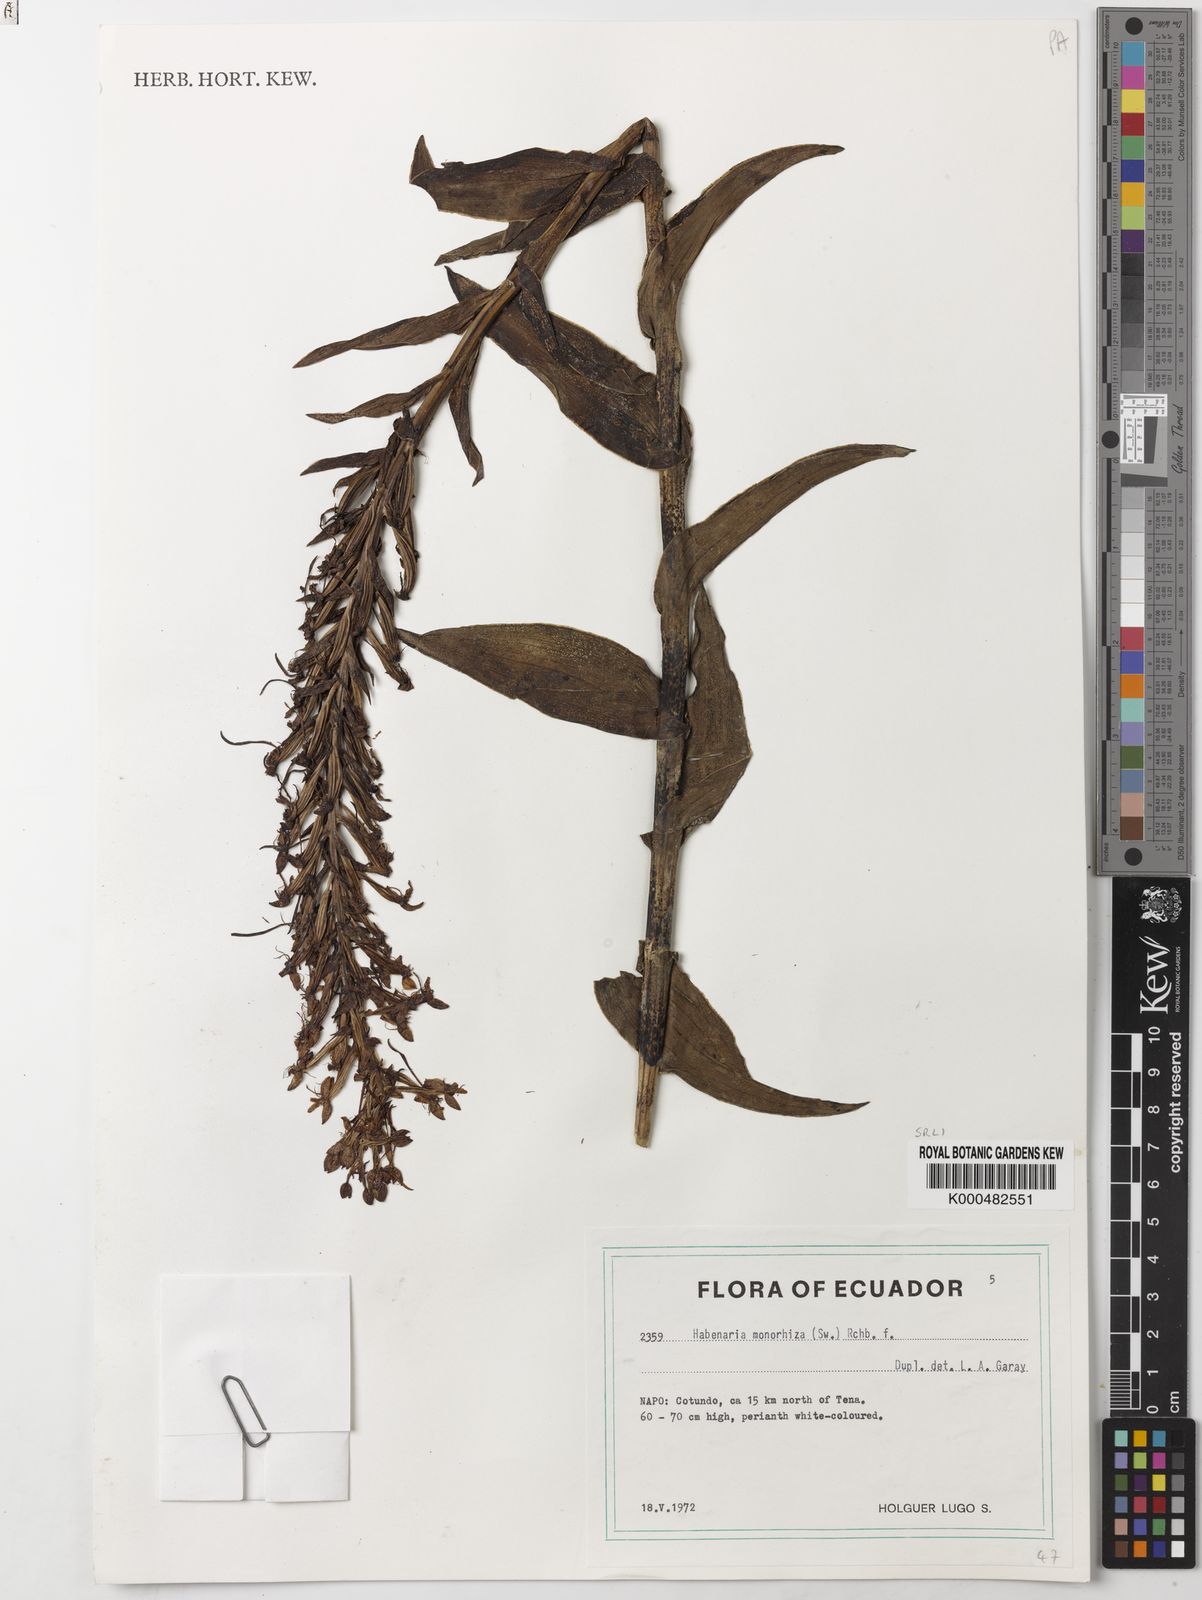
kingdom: Plantae
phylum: Tracheophyta
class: Liliopsida
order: Asparagales
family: Orchidaceae
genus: Habenaria
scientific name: Habenaria monorrhiza
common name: Tropical bog orchid
